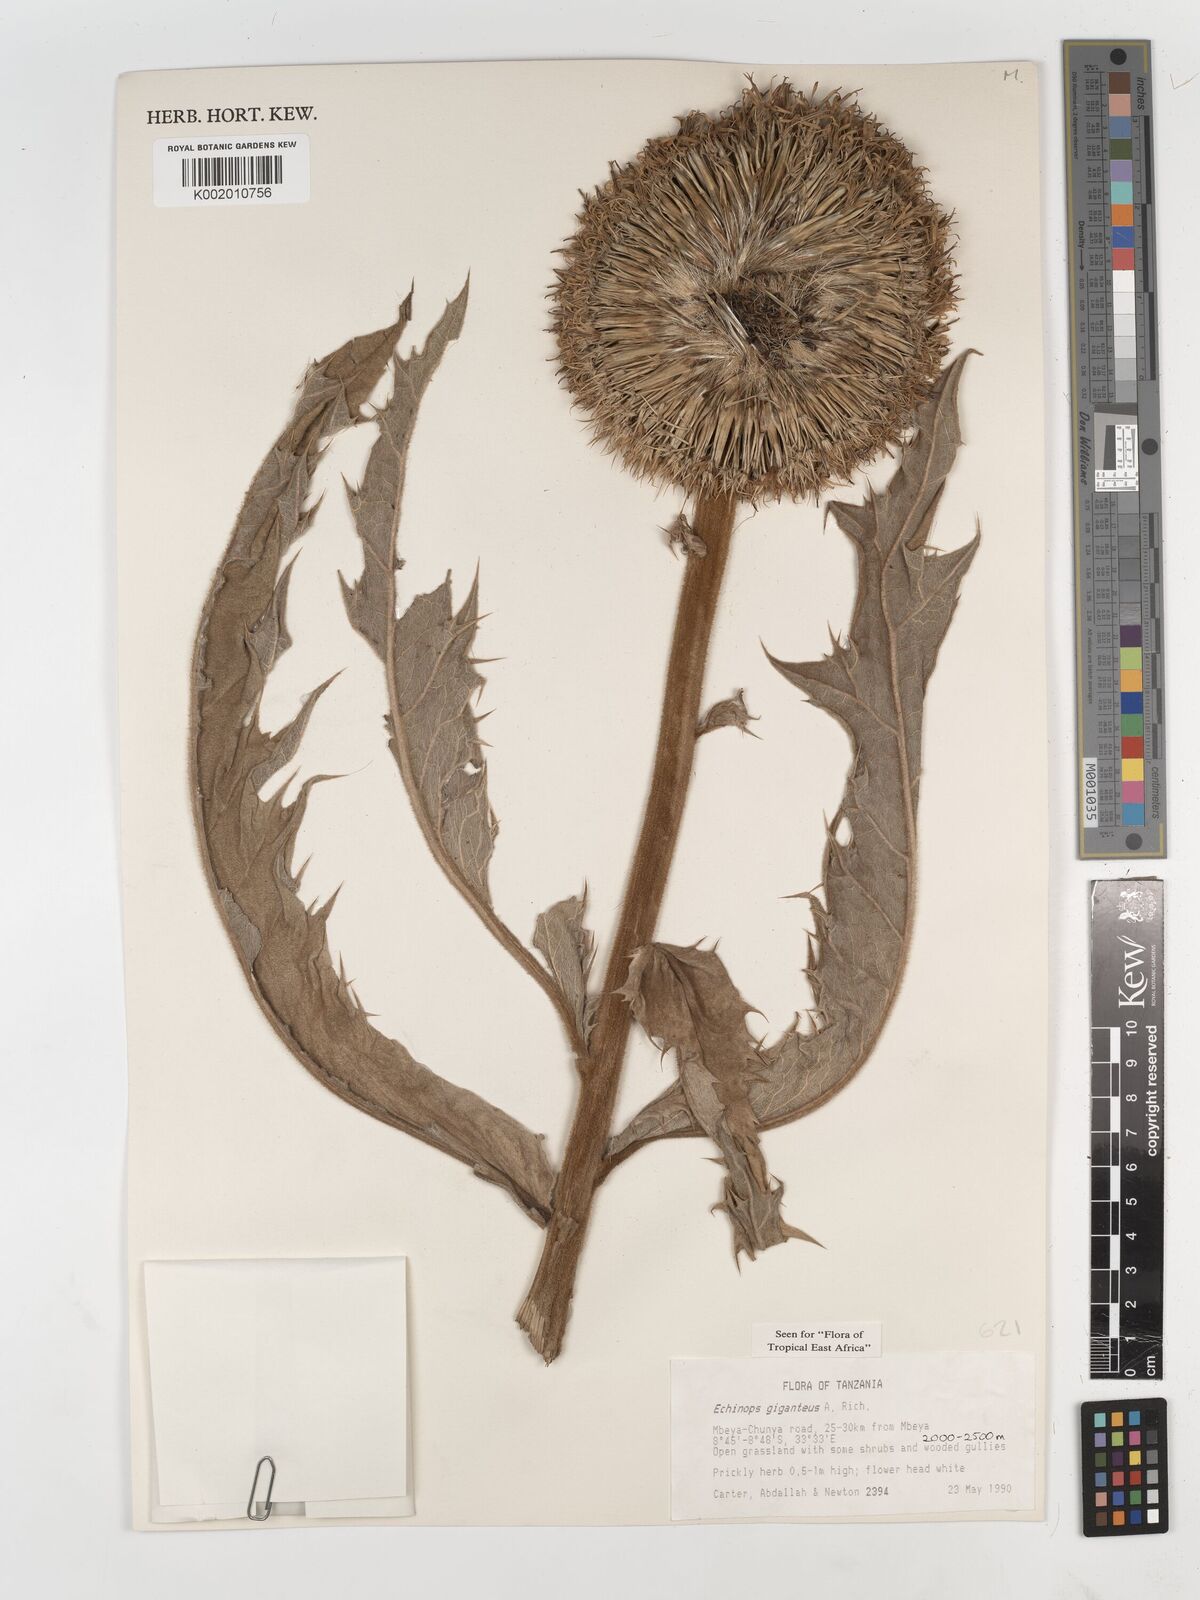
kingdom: Plantae
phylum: Tracheophyta
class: Magnoliopsida
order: Asterales
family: Asteraceae
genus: Echinops
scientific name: Echinops giganteus
